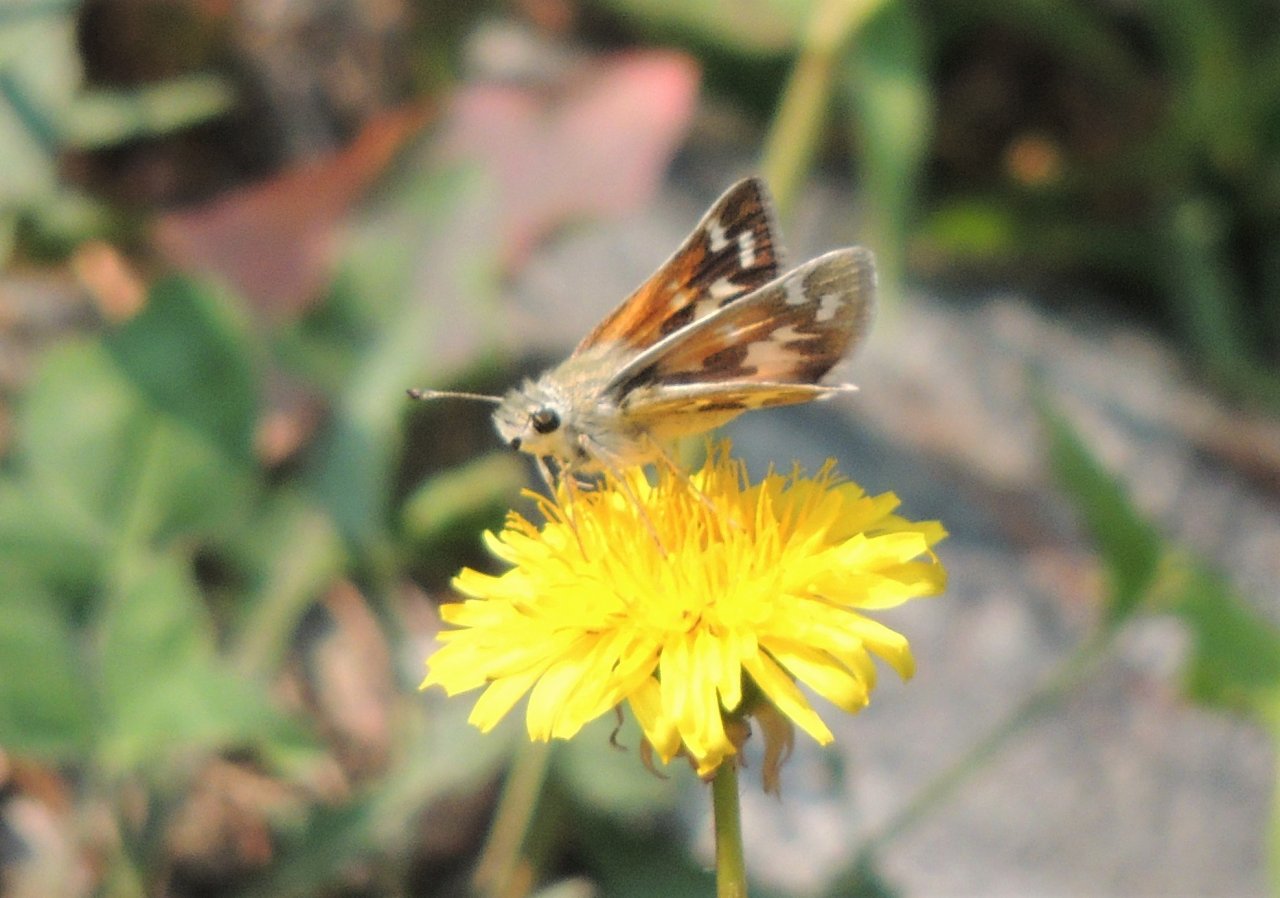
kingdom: Animalia
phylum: Arthropoda
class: Insecta
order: Lepidoptera
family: Hesperiidae
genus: Hesperia
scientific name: Hesperia juba
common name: Juba Skipper
